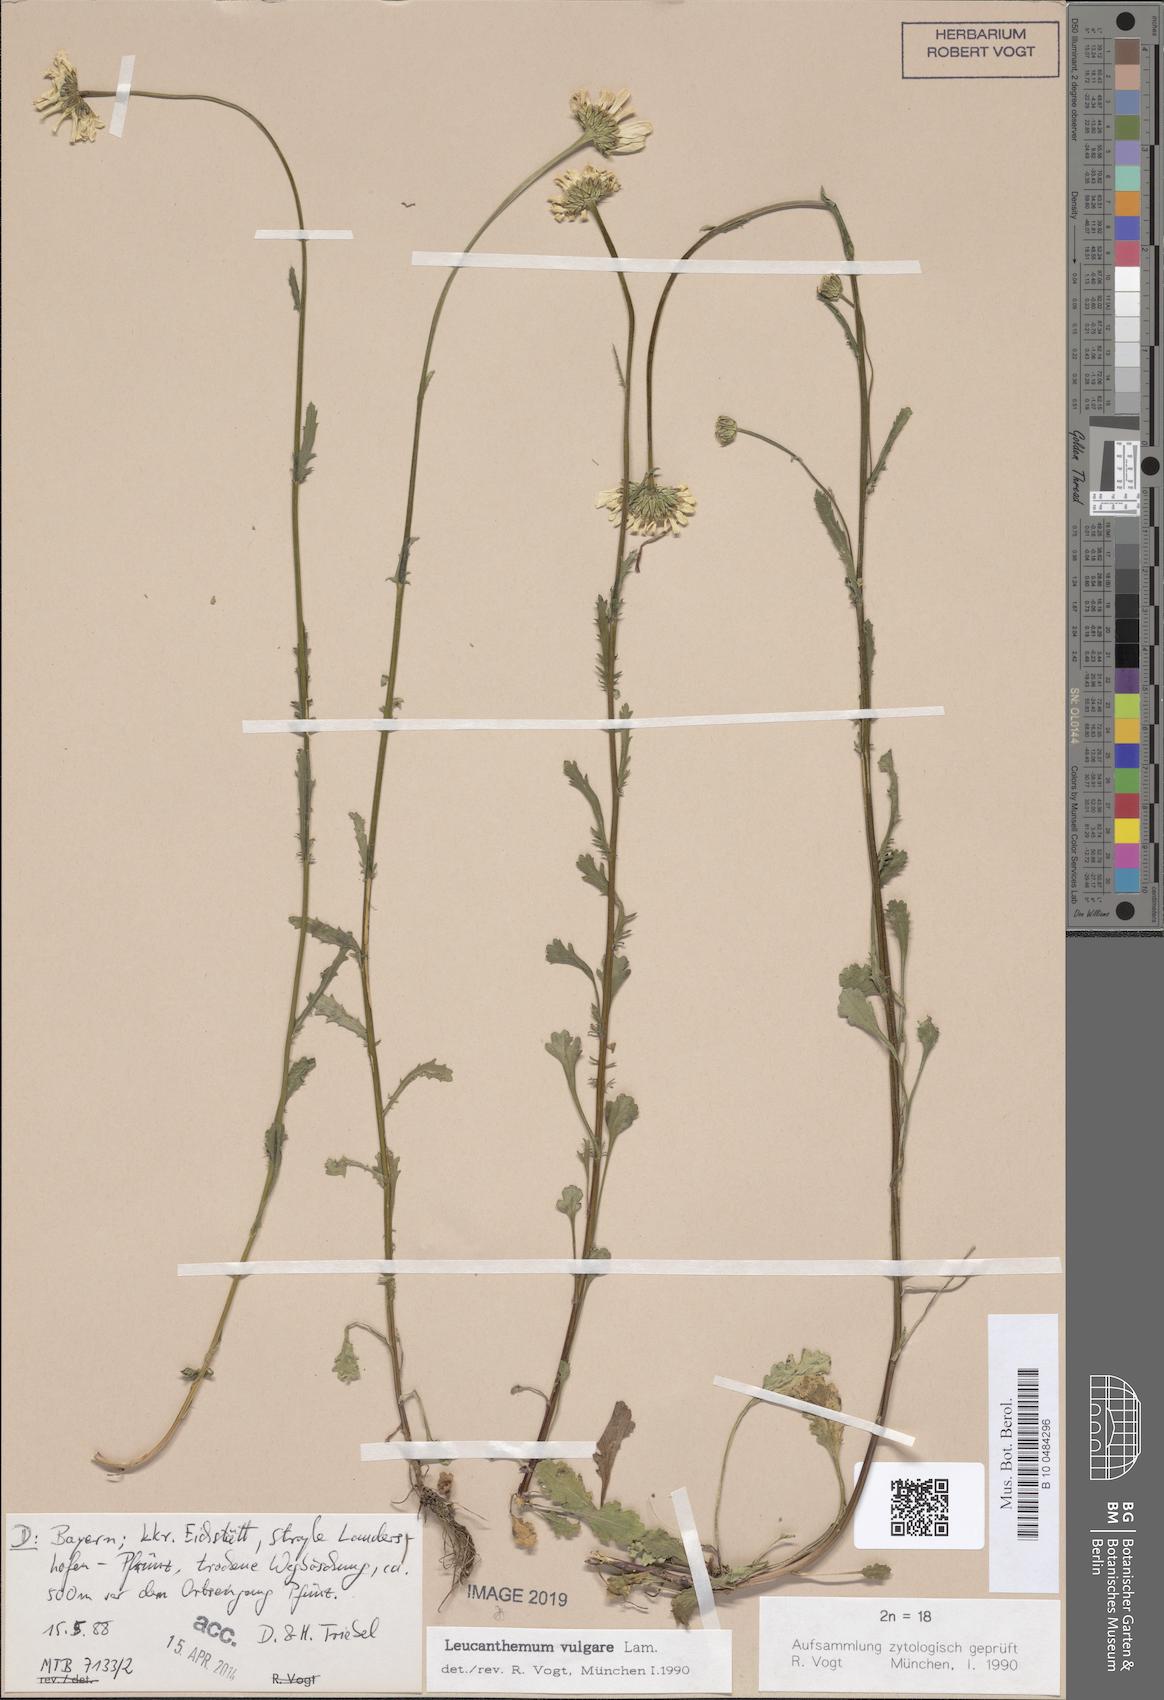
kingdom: Plantae
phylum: Tracheophyta
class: Magnoliopsida
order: Asterales
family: Asteraceae
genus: Leucanthemum
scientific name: Leucanthemum vulgare
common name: Oxeye daisy
